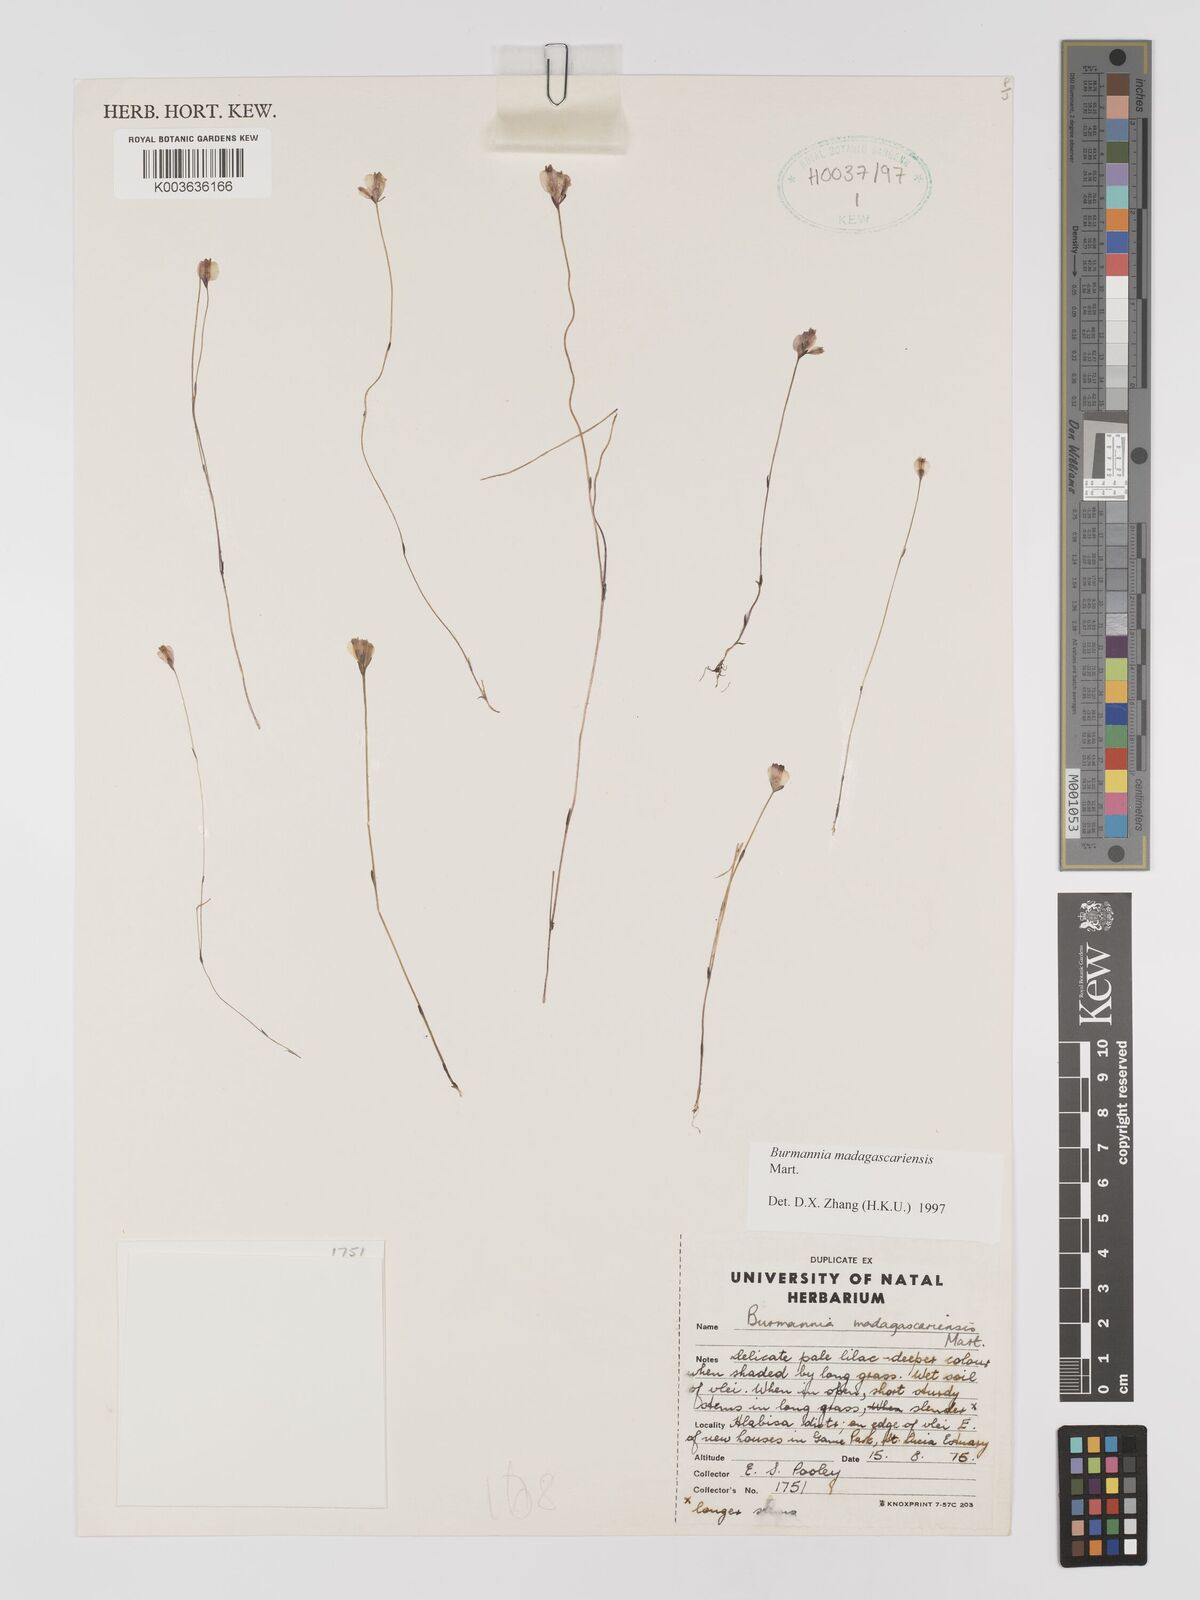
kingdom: Plantae
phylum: Tracheophyta
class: Liliopsida
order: Dioscoreales
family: Burmanniaceae
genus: Burmannia
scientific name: Burmannia madagascariensis
